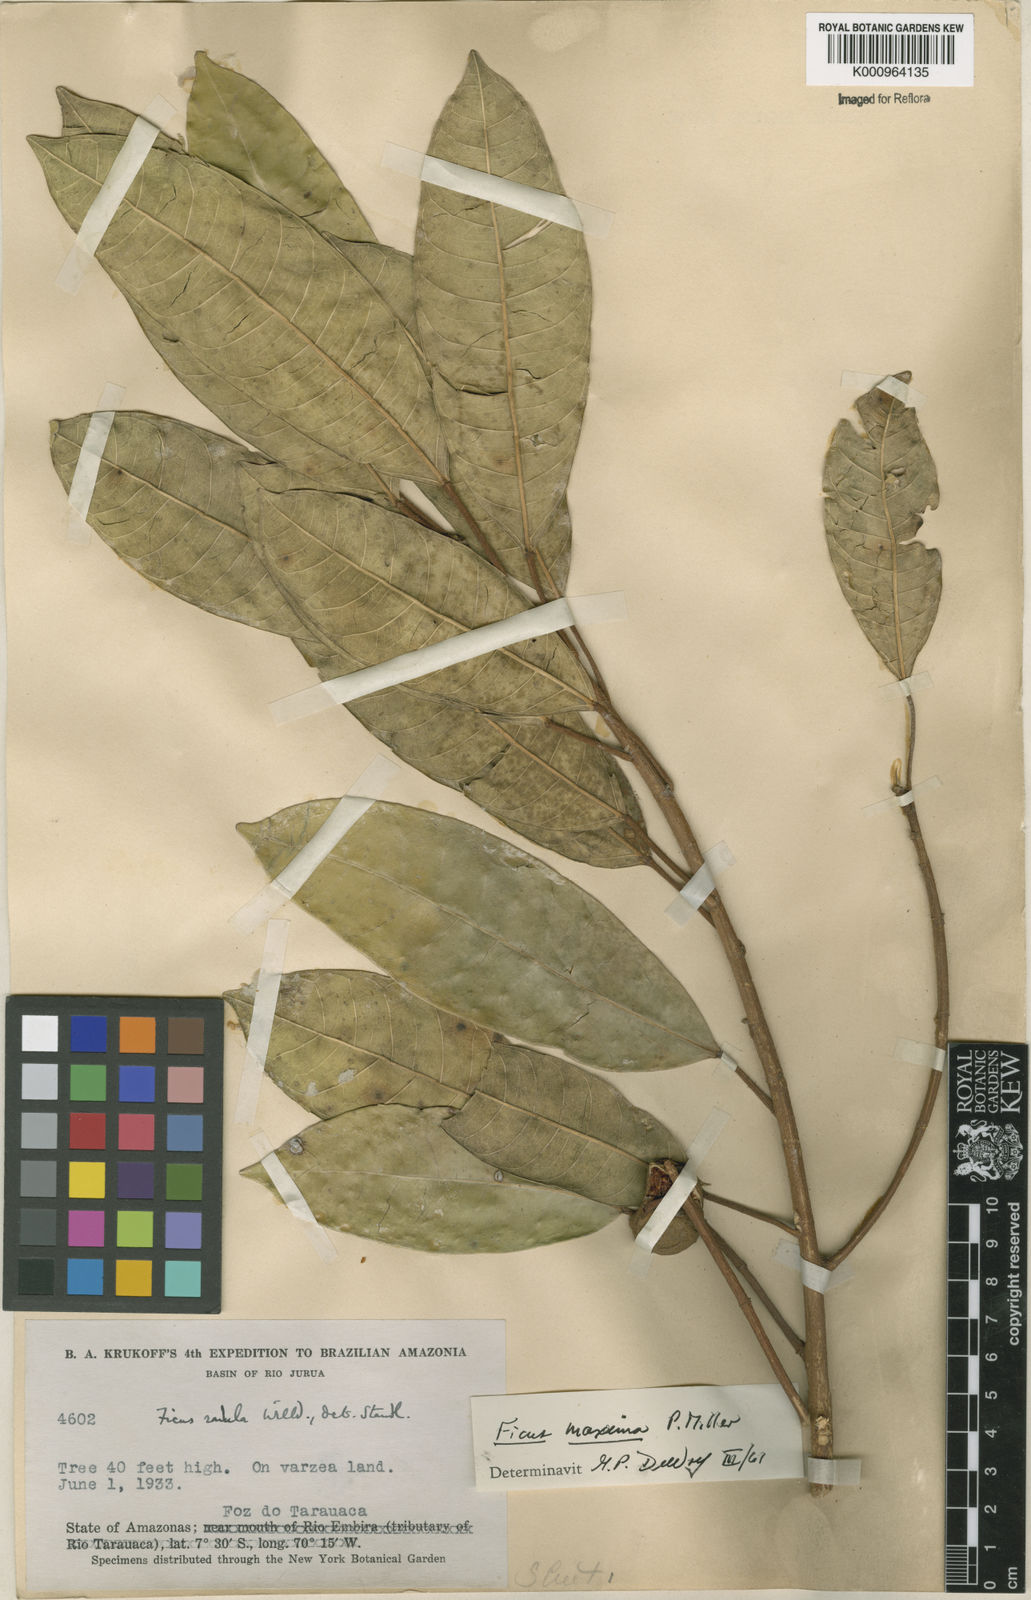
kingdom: Plantae
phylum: Tracheophyta
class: Magnoliopsida
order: Rosales
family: Moraceae
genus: Ficus
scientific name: Ficus maxima
